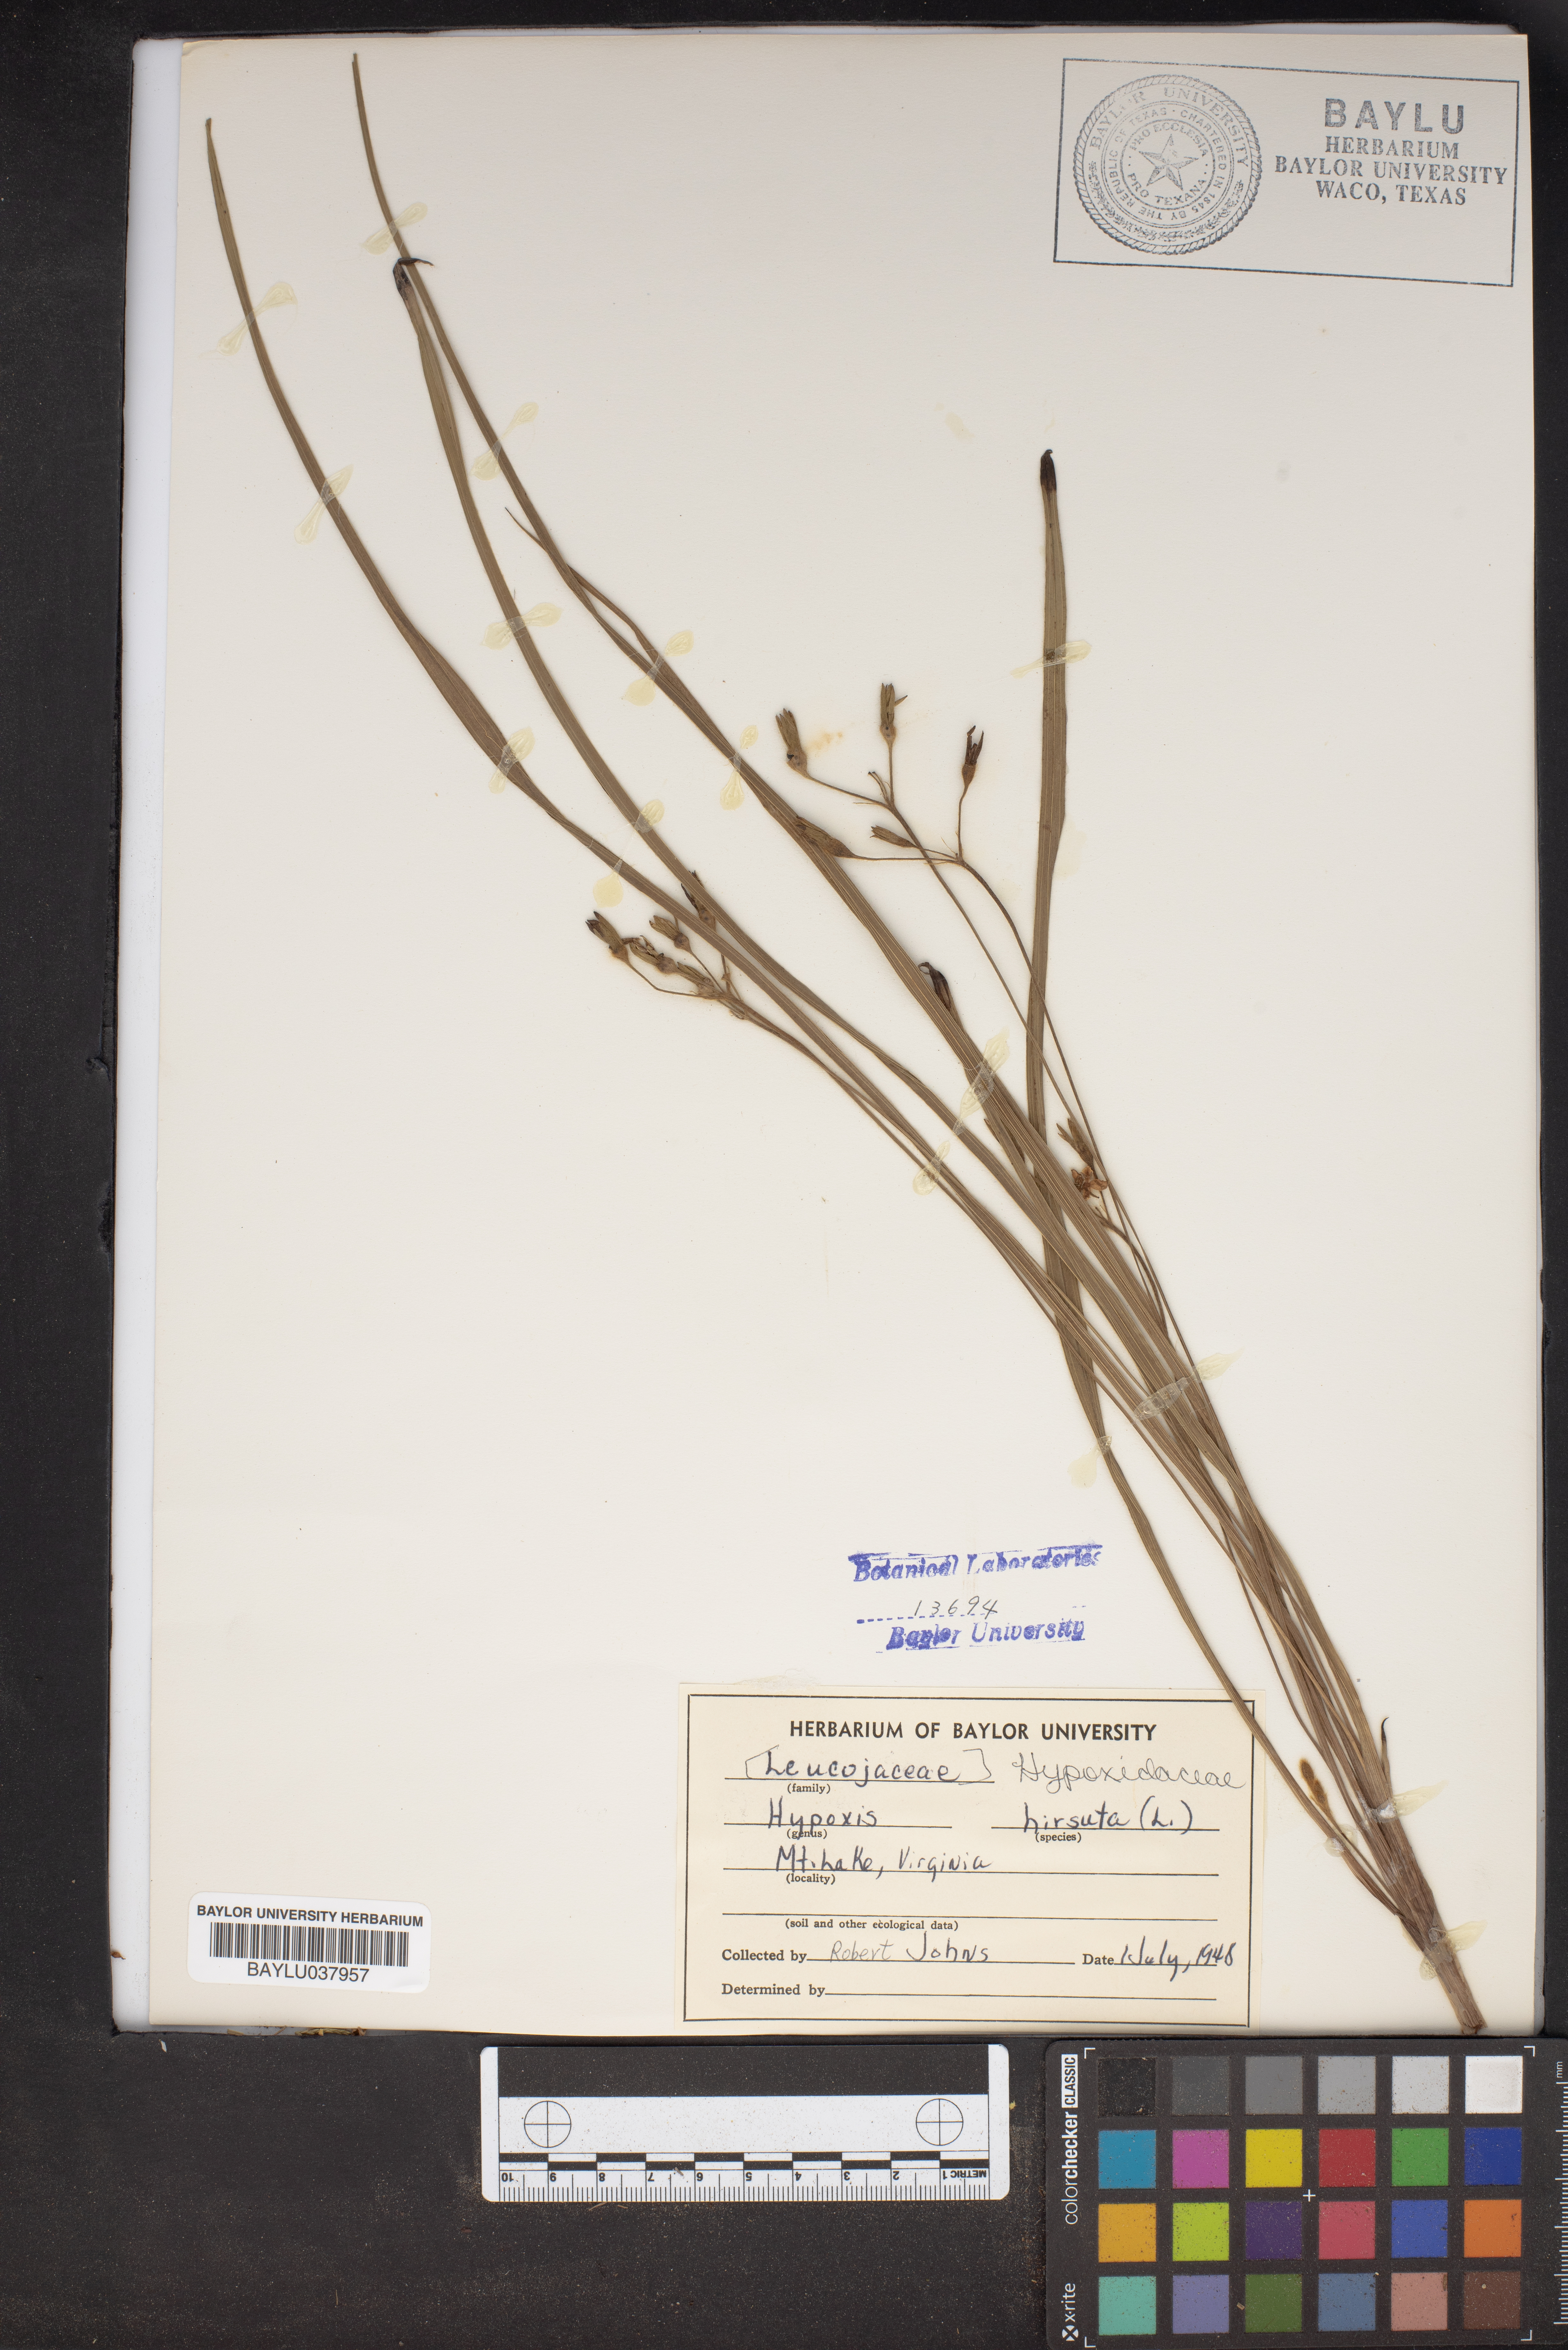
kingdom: Plantae
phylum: Tracheophyta
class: Liliopsida
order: Asparagales
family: Hypoxidaceae
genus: Hypoxis
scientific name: Hypoxis hirsuta
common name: Common goldstar
